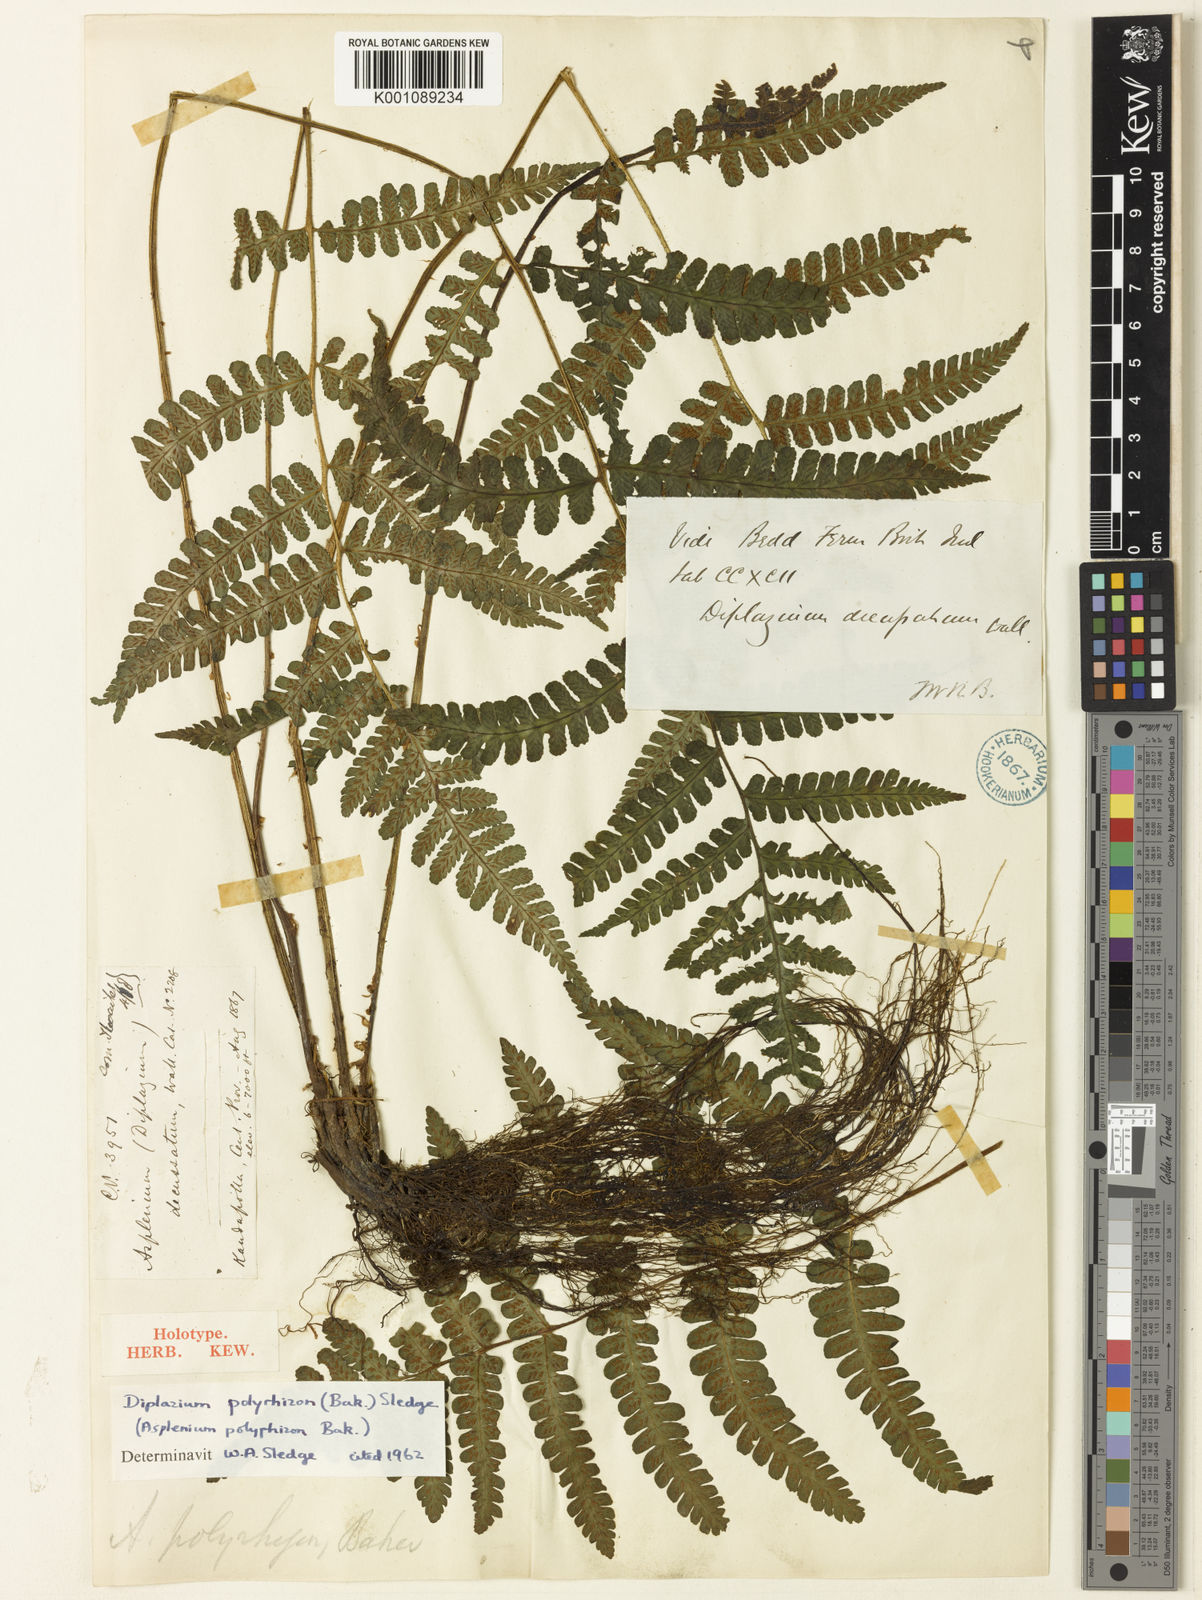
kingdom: Plantae
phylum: Tracheophyta
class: Polypodiopsida
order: Polypodiales
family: Athyriaceae
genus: Deparia
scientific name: Deparia
